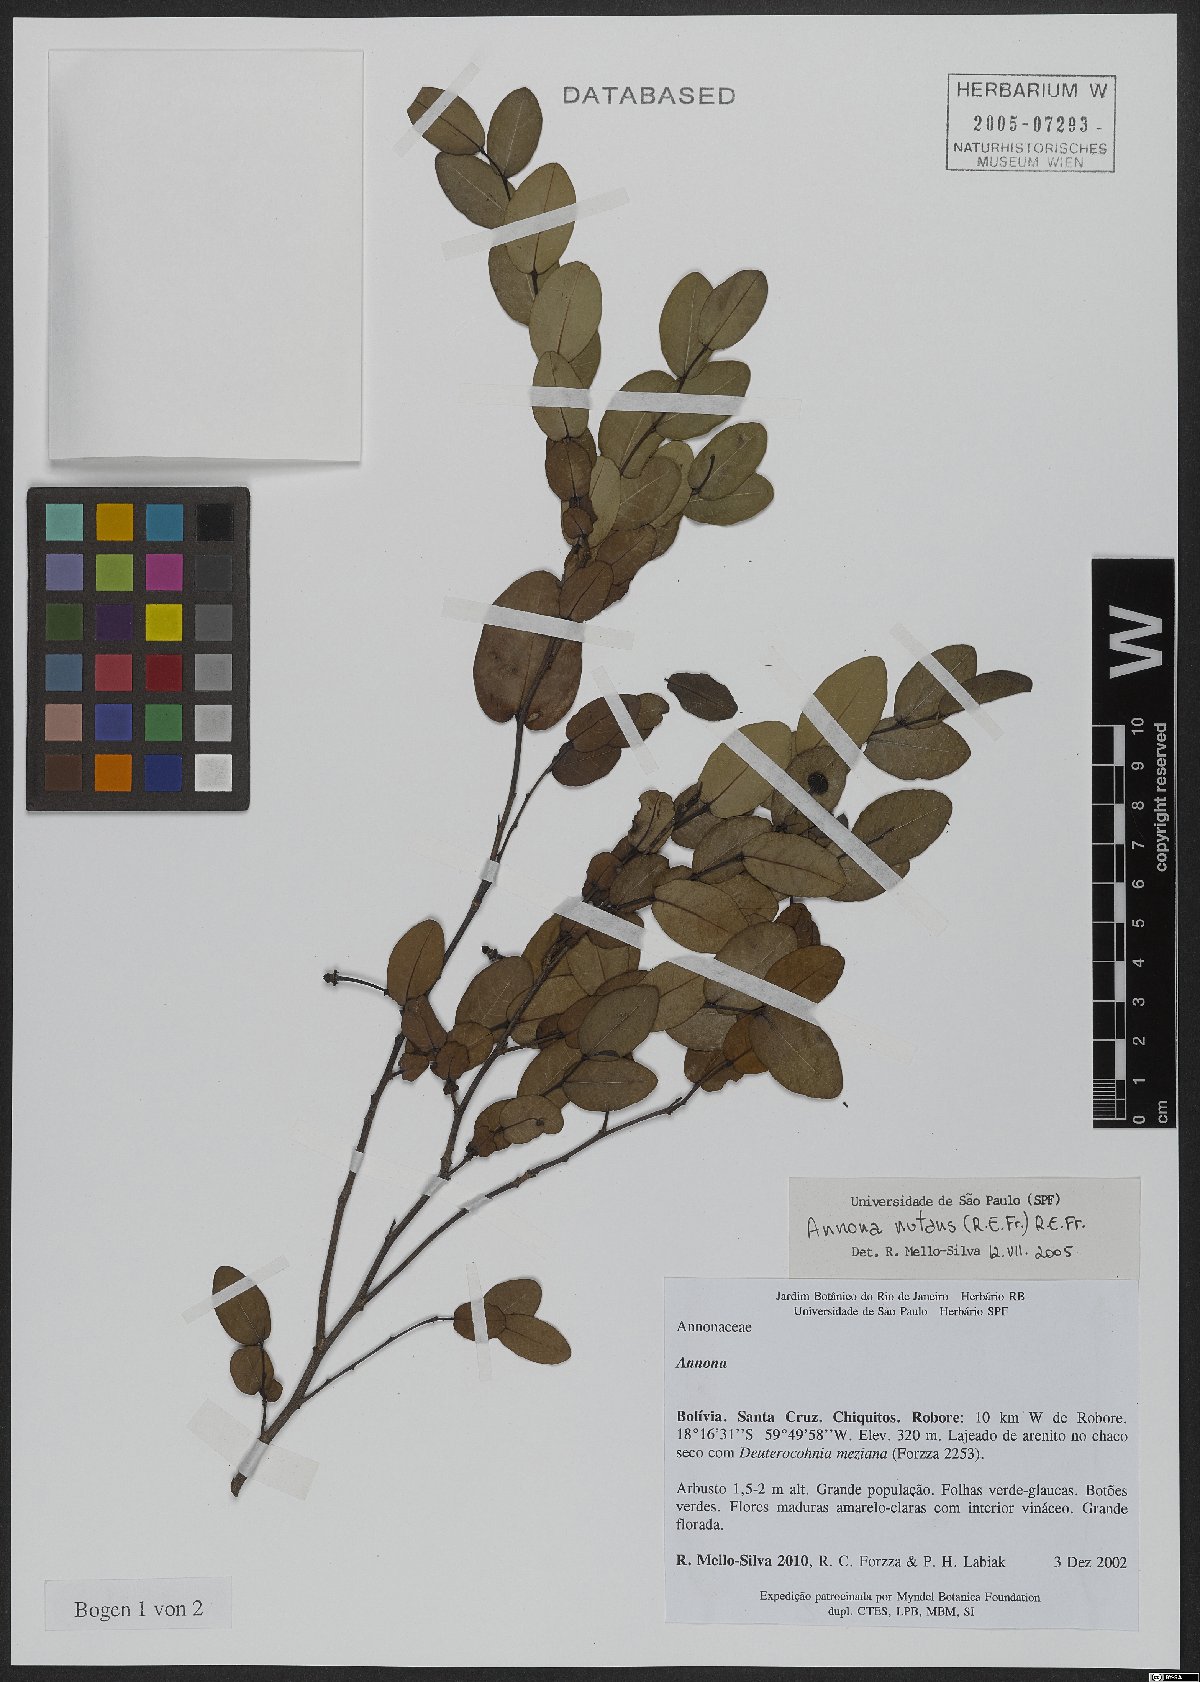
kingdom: Plantae
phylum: Tracheophyta
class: Magnoliopsida
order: Magnoliales
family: Annonaceae
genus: Annona
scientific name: Annona nutans
